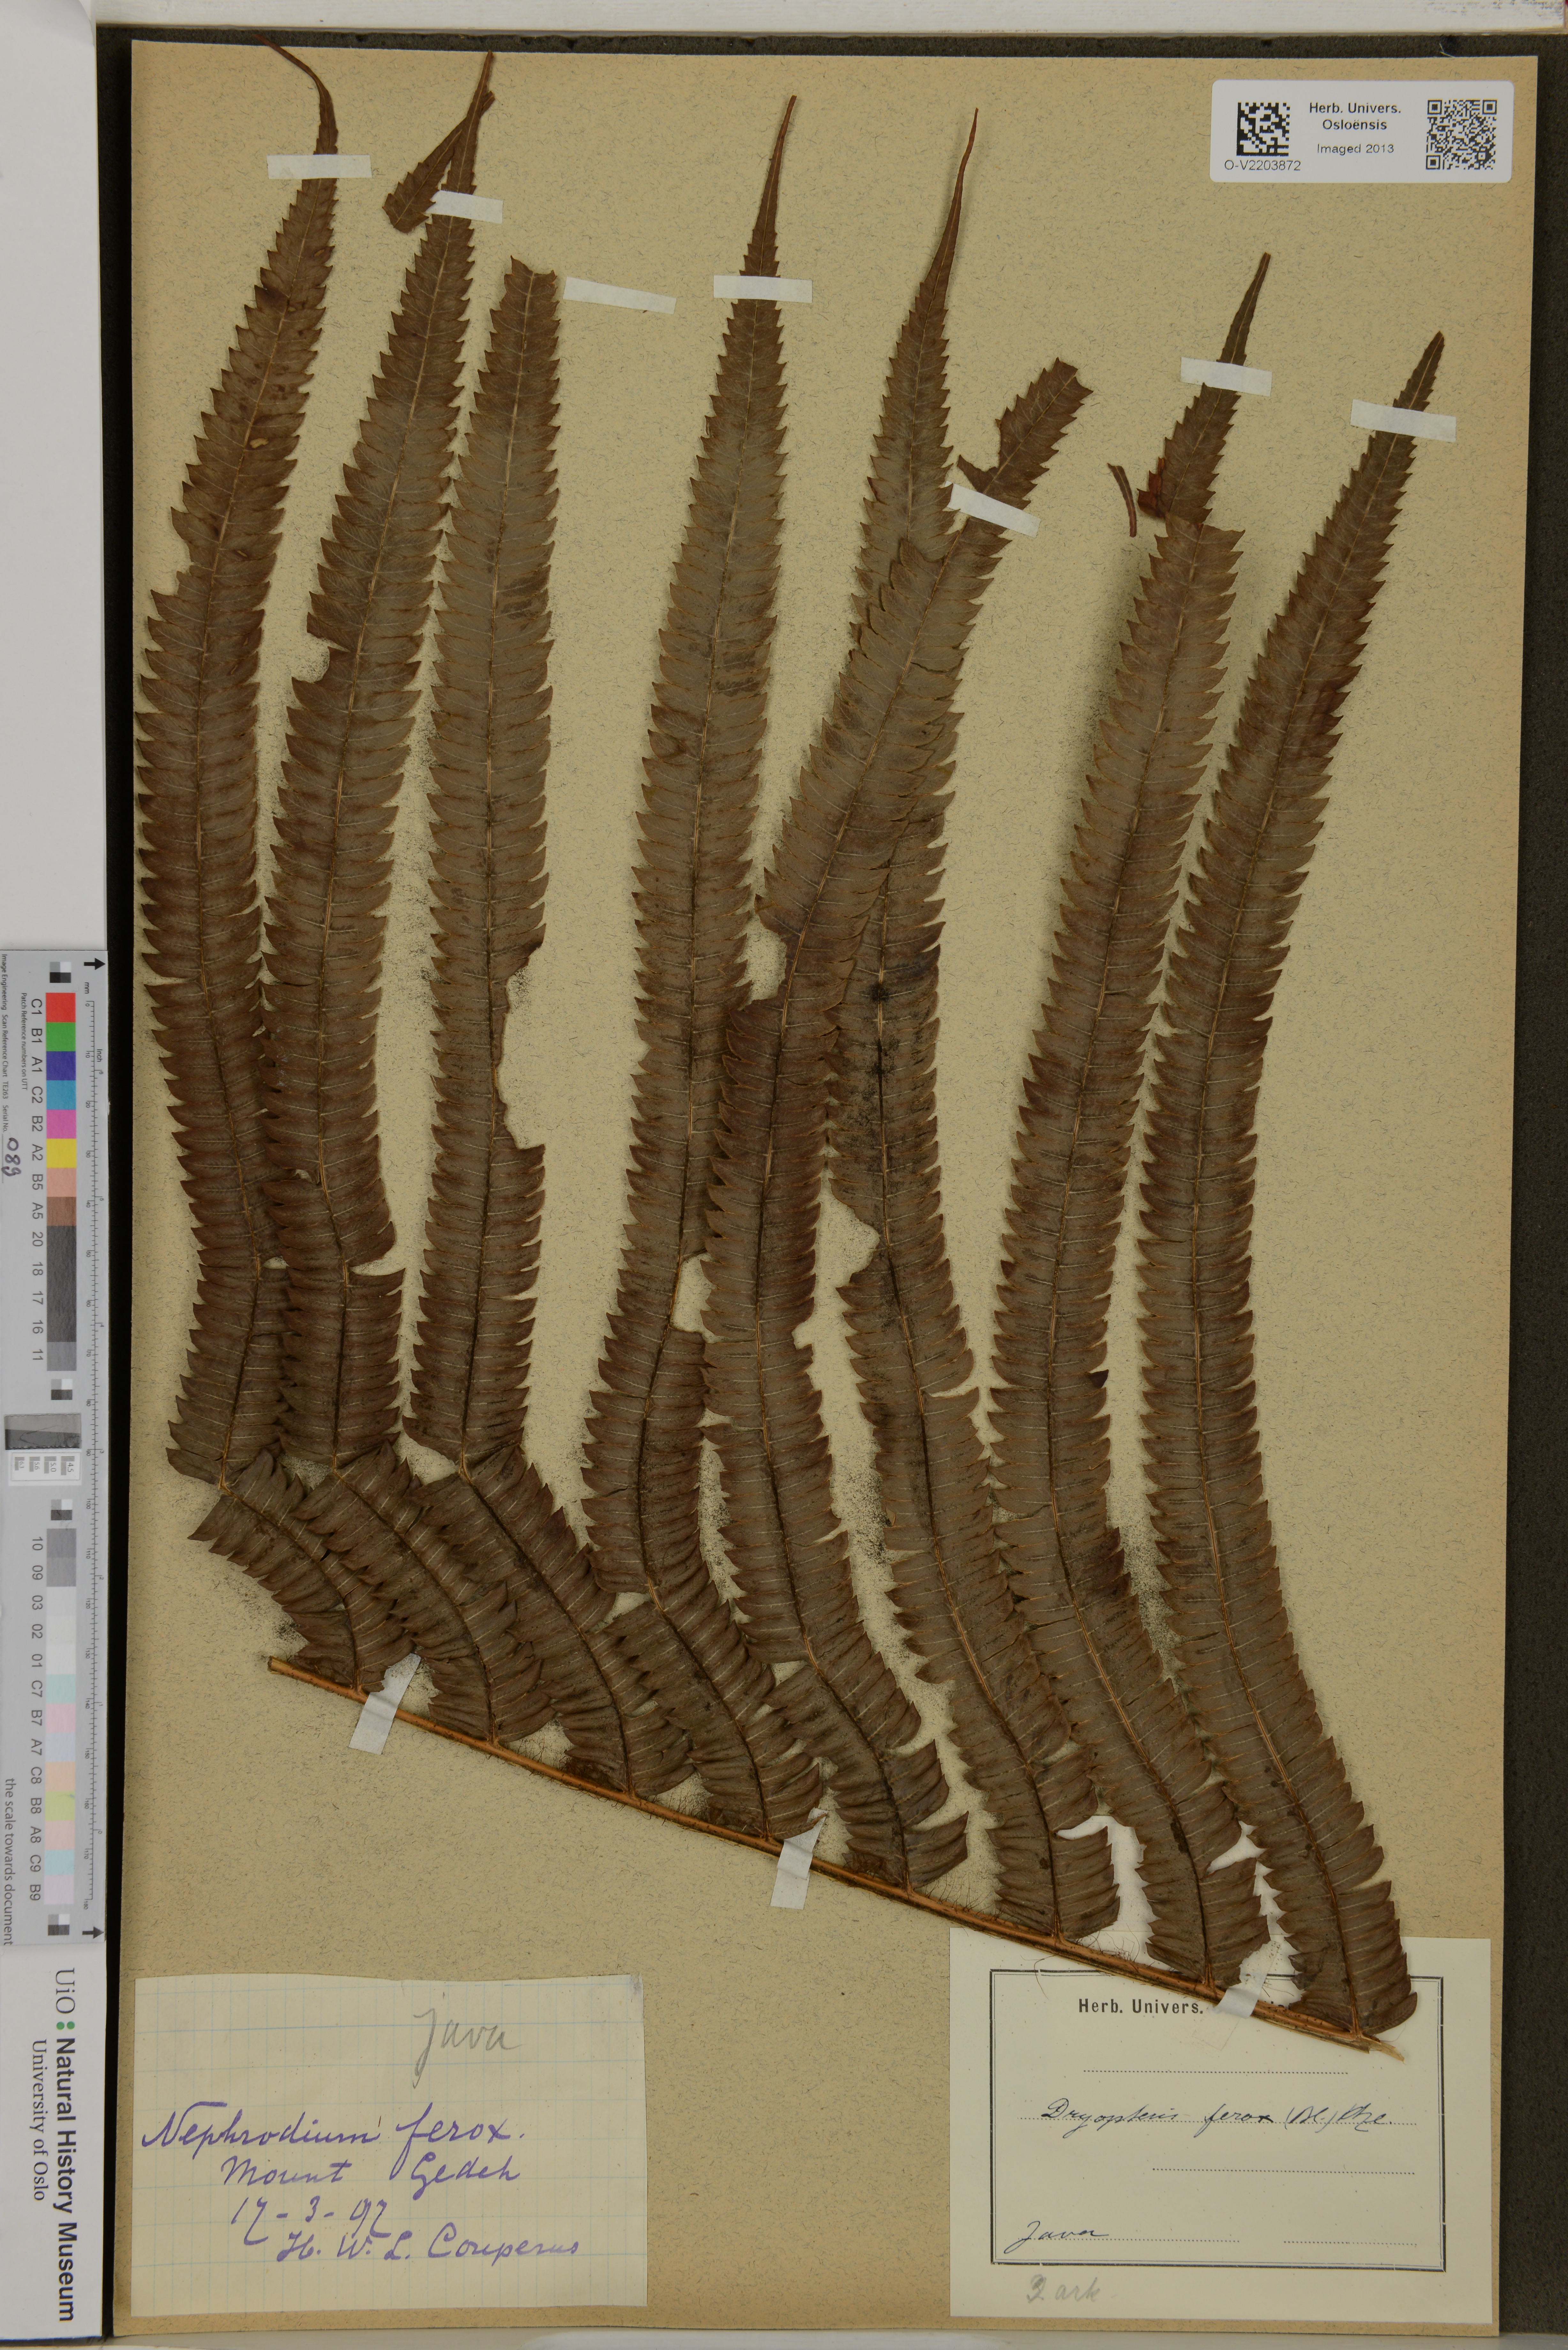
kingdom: Plantae
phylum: Tracheophyta
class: Polypodiopsida
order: Polypodiales
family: Thelypteridaceae
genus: Chingia
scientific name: Chingia ferox
